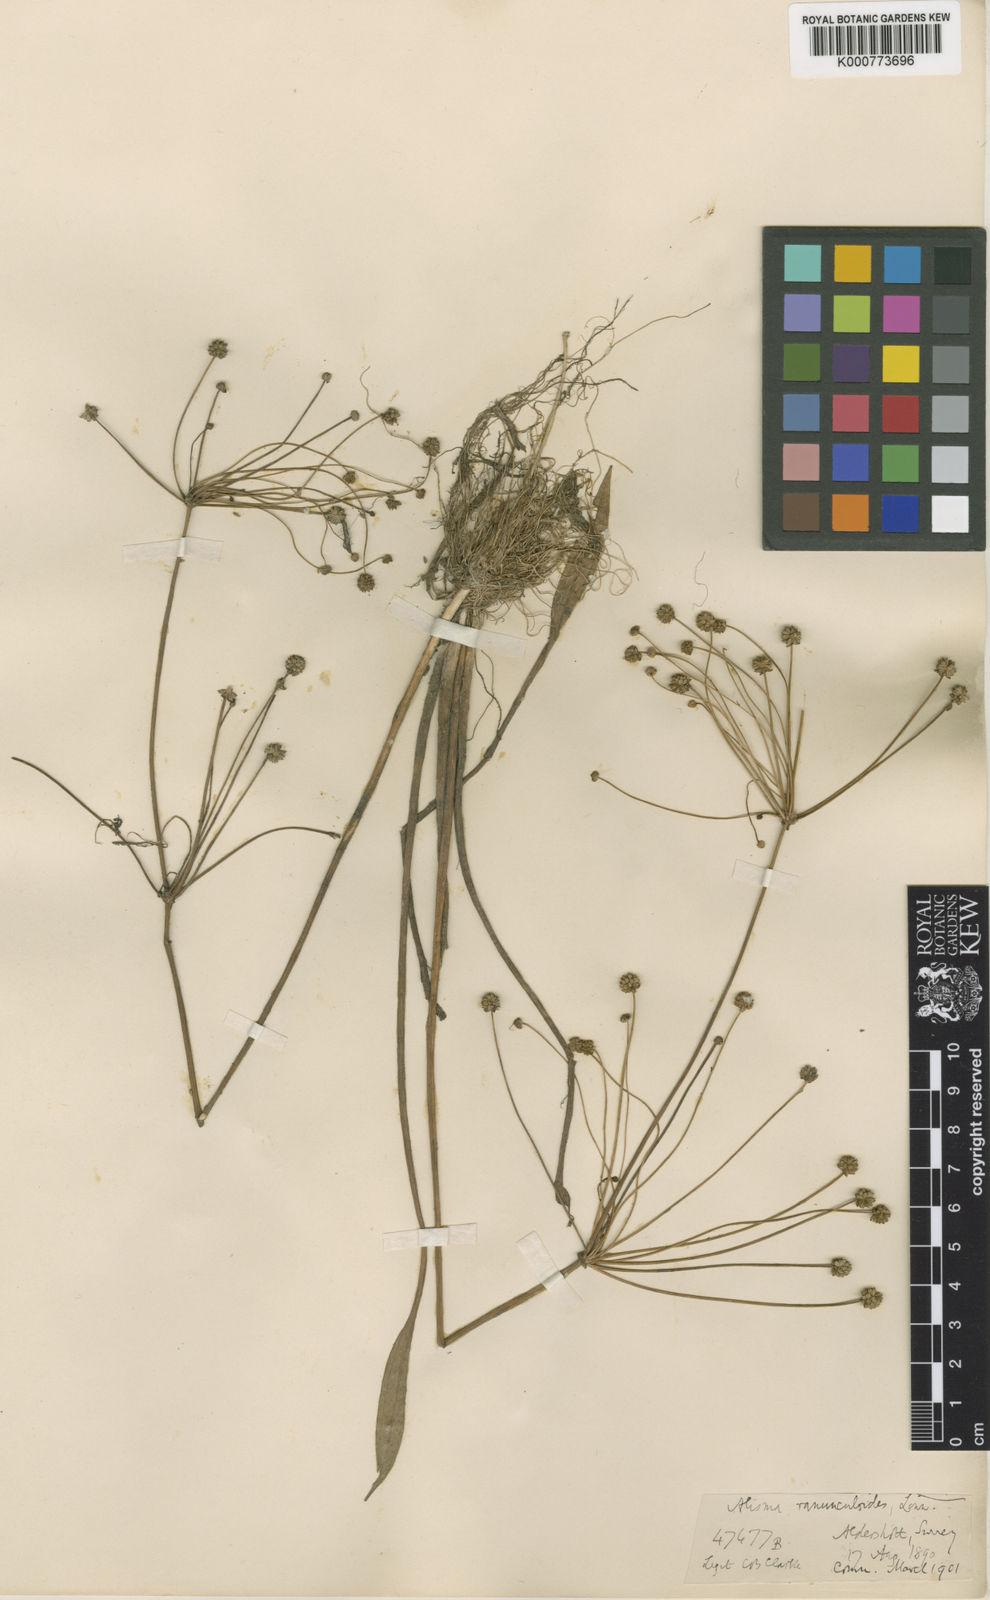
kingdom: Plantae
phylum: Tracheophyta
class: Liliopsida
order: Alismatales
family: Alismataceae
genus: Baldellia
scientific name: Baldellia ranunculoides
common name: Lesser water-plantain
